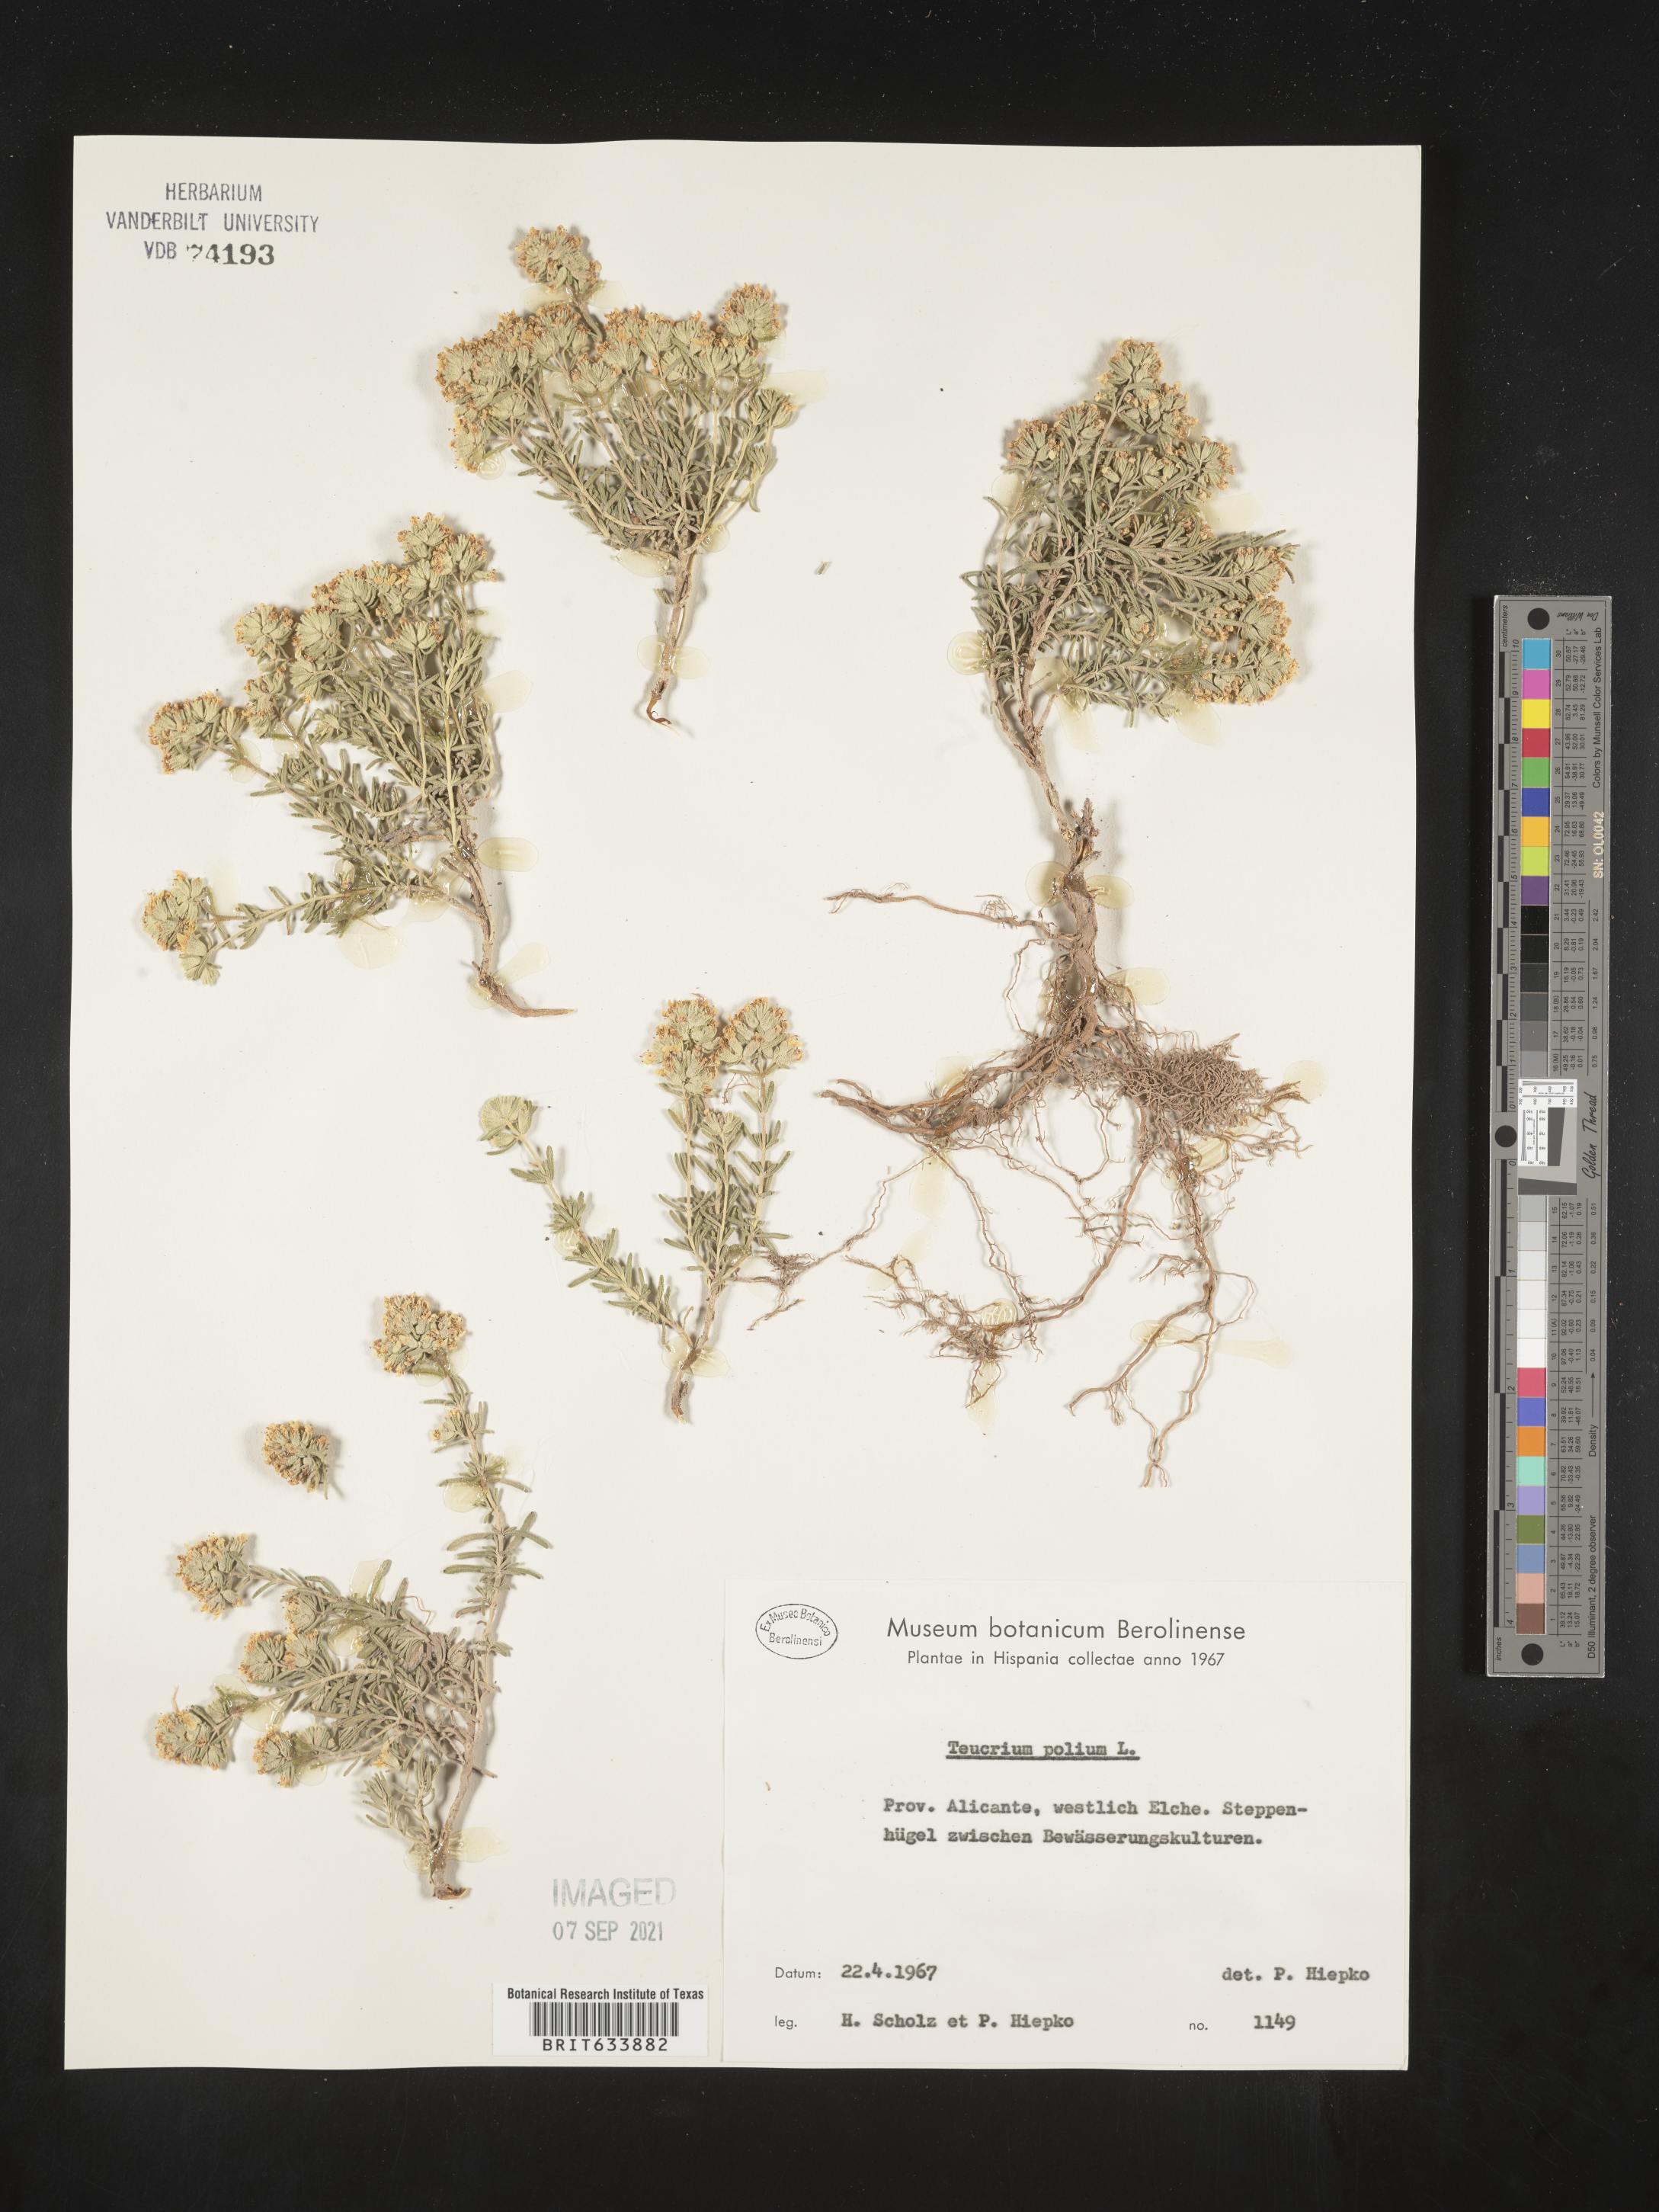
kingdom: Plantae
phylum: Tracheophyta
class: Magnoliopsida
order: Lamiales
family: Lamiaceae
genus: Teucrium
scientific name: Teucrium
